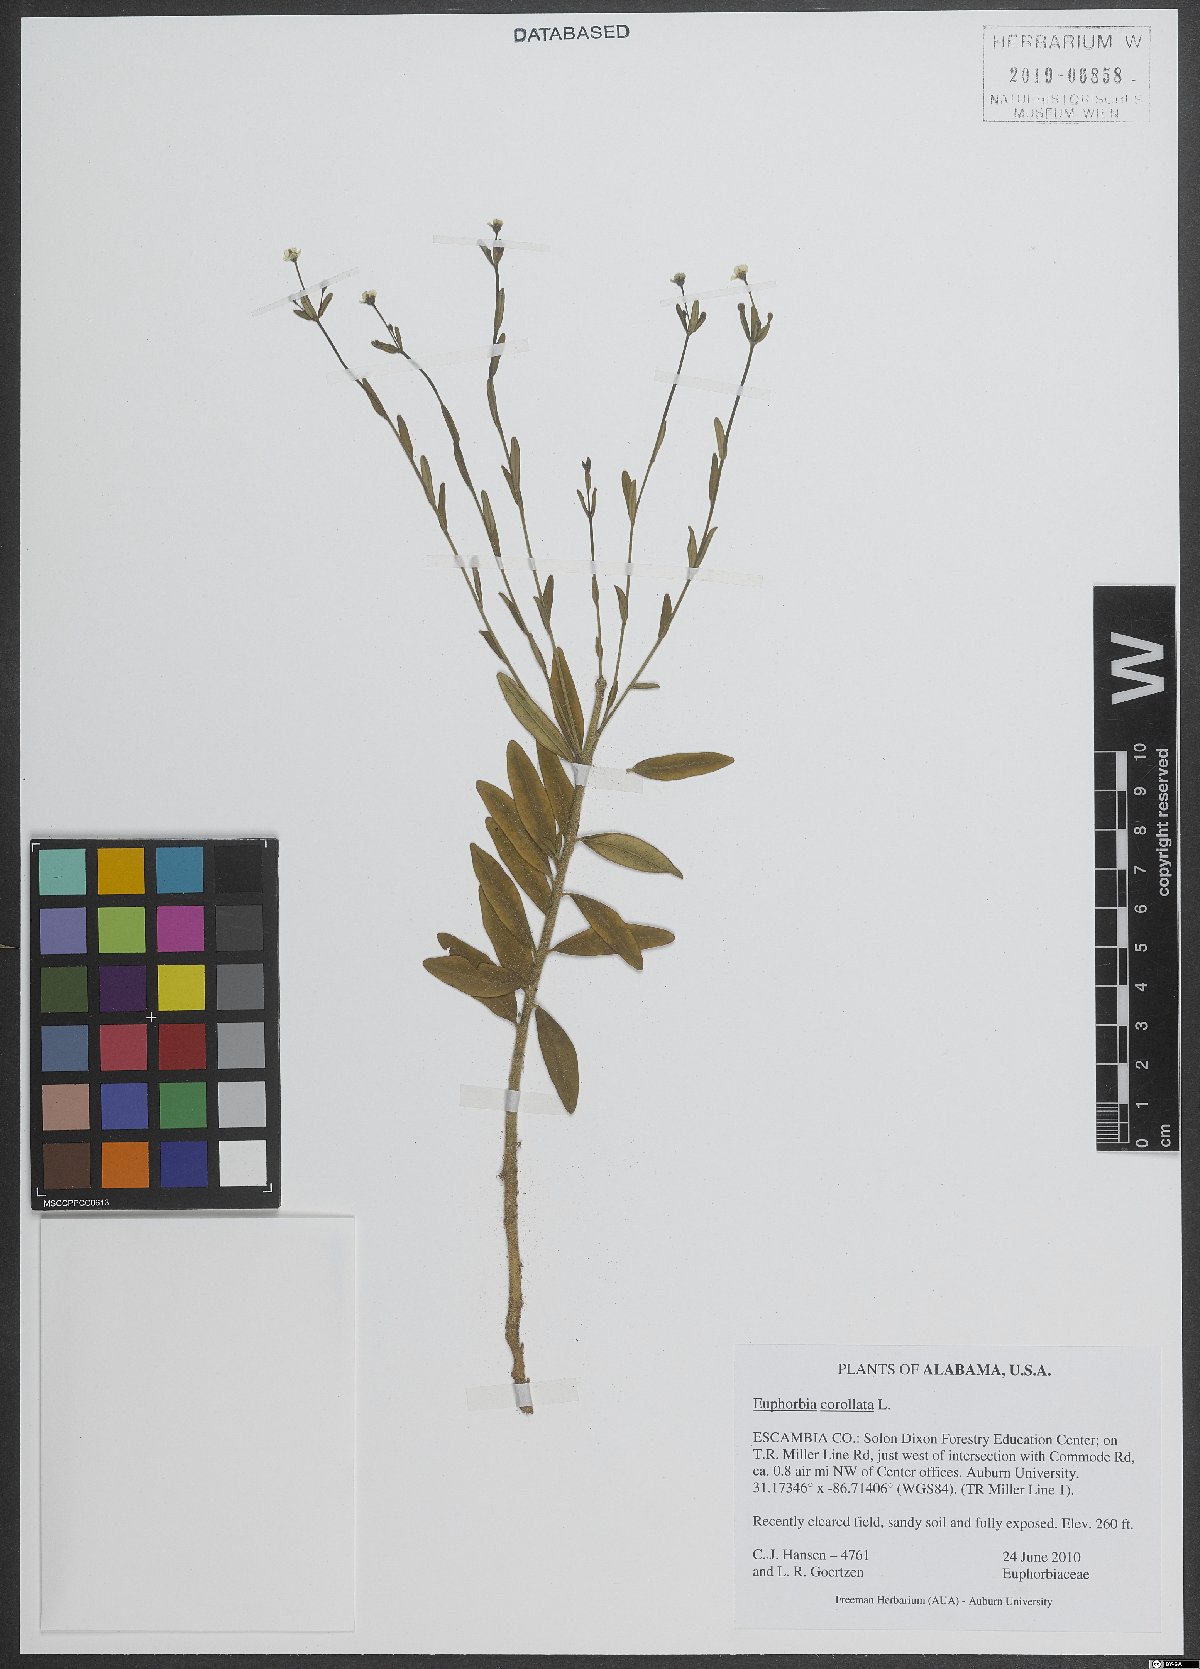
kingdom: Plantae
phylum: Tracheophyta
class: Magnoliopsida
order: Malpighiales
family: Euphorbiaceae
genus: Euphorbia
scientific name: Euphorbia corollata
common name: Flowering spurge
